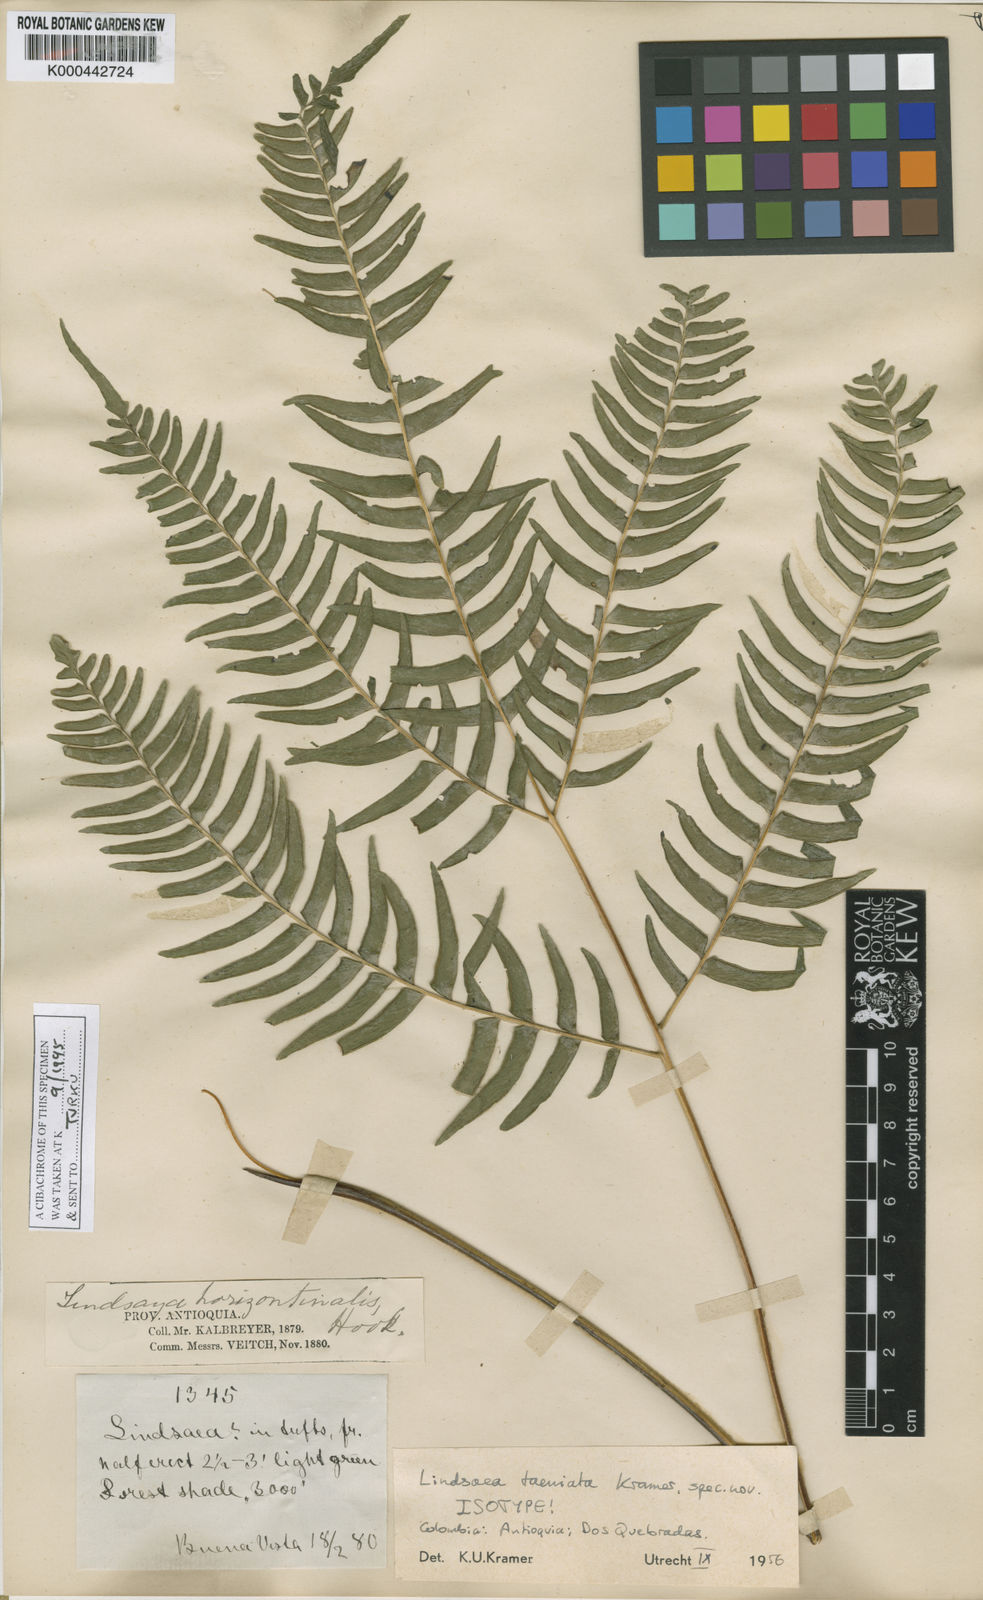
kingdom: Plantae
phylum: Tracheophyta
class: Polypodiopsida
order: Polypodiales
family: Lindsaeaceae
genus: Lindsaea
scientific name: Lindsaea taeniata
